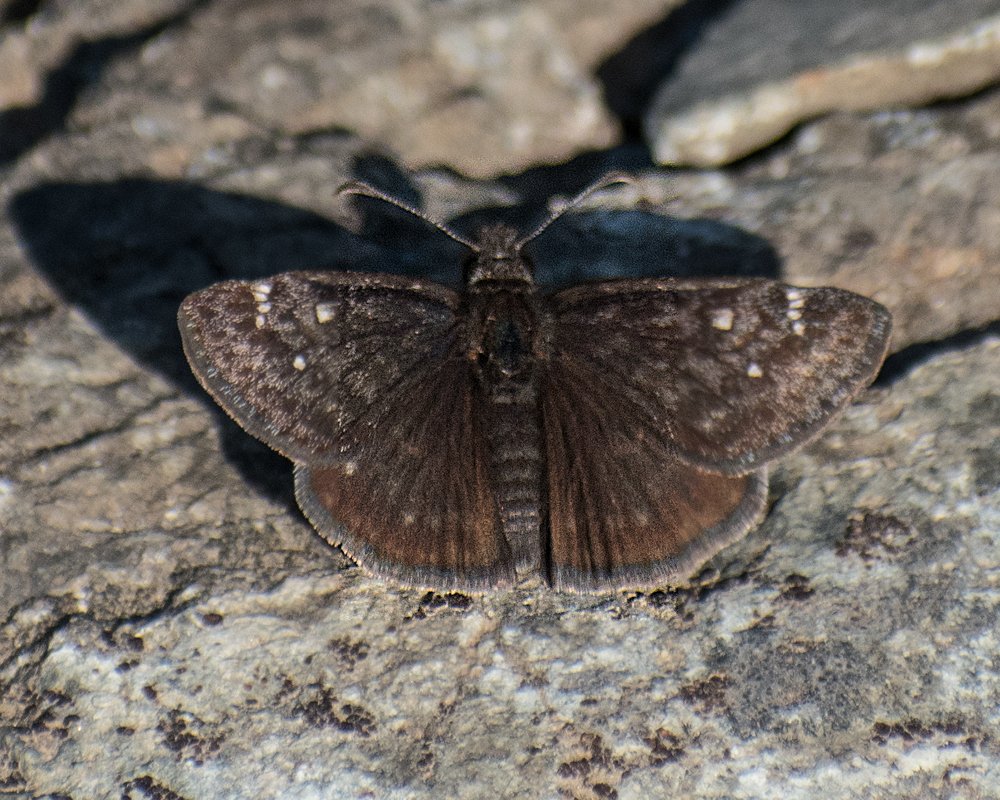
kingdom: Animalia
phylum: Arthropoda
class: Insecta
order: Lepidoptera
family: Hesperiidae
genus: Gesta
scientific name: Gesta
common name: Persius Duskywing
